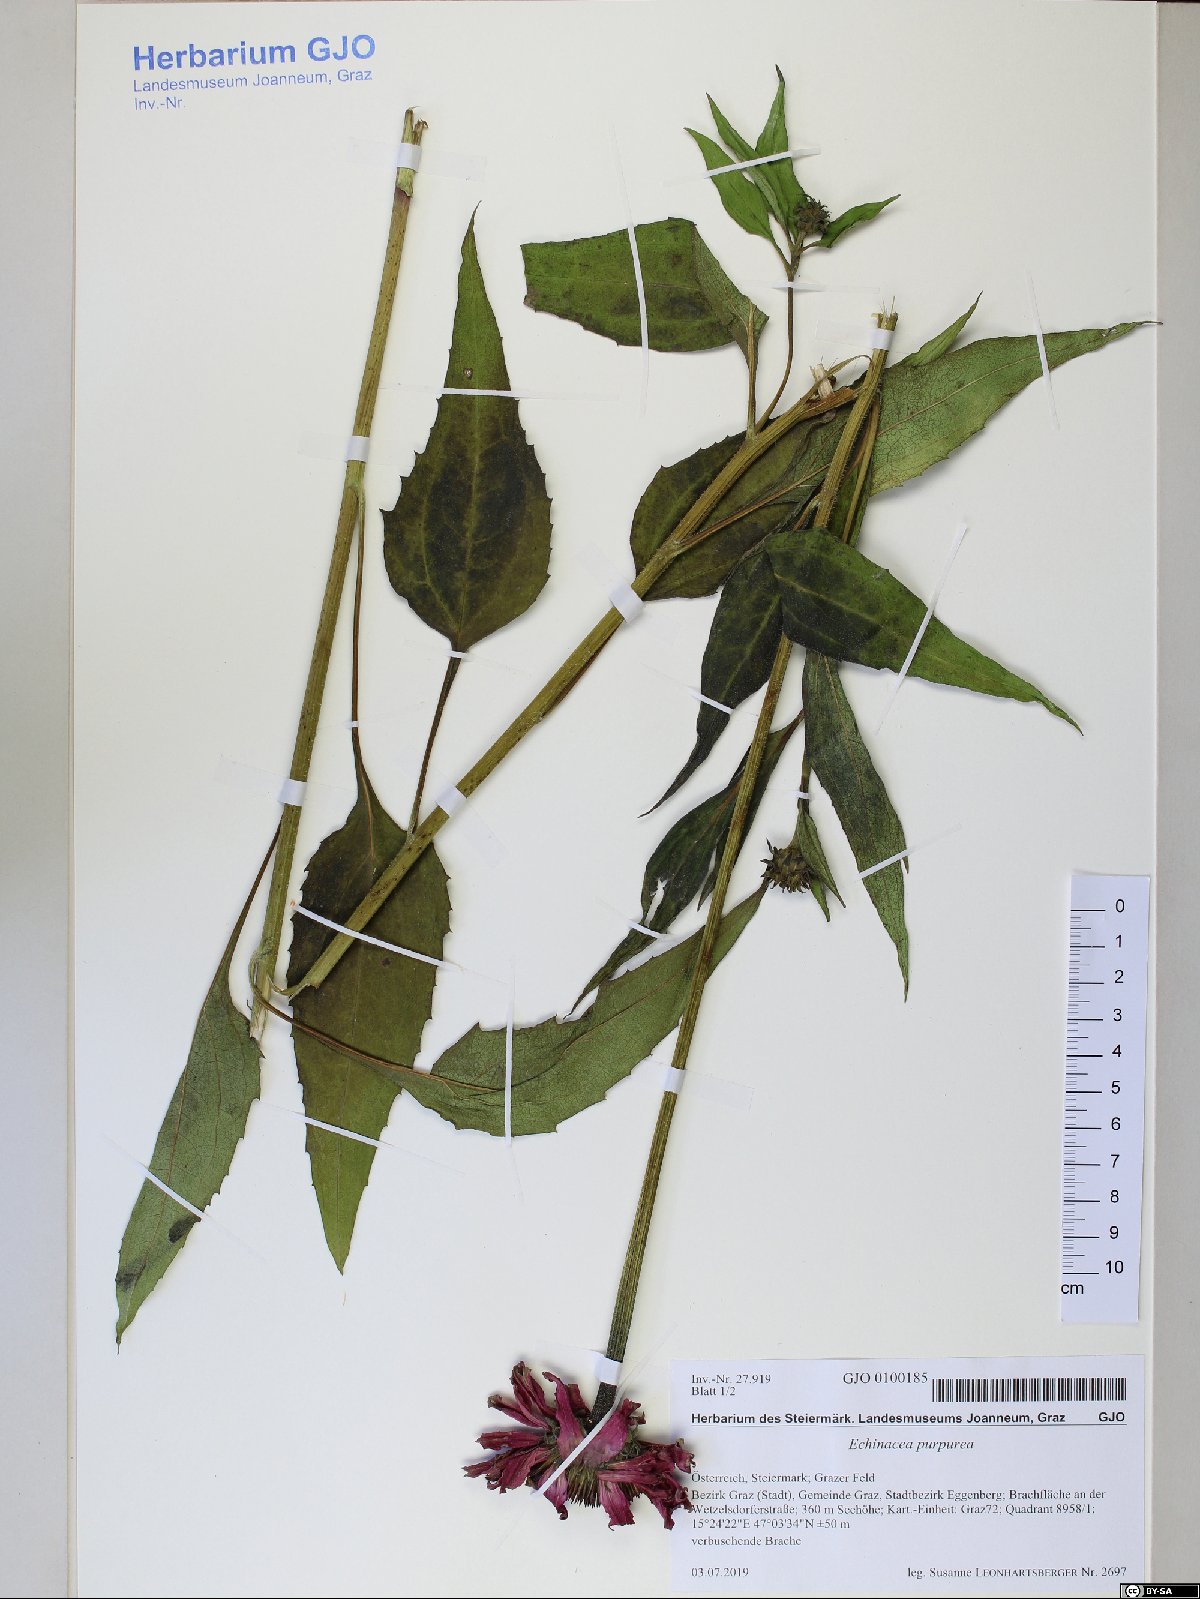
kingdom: Plantae
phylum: Tracheophyta
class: Magnoliopsida
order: Asterales
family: Asteraceae
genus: Echinacea
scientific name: Echinacea purpurea
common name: Broad-leaved purple coneflower
